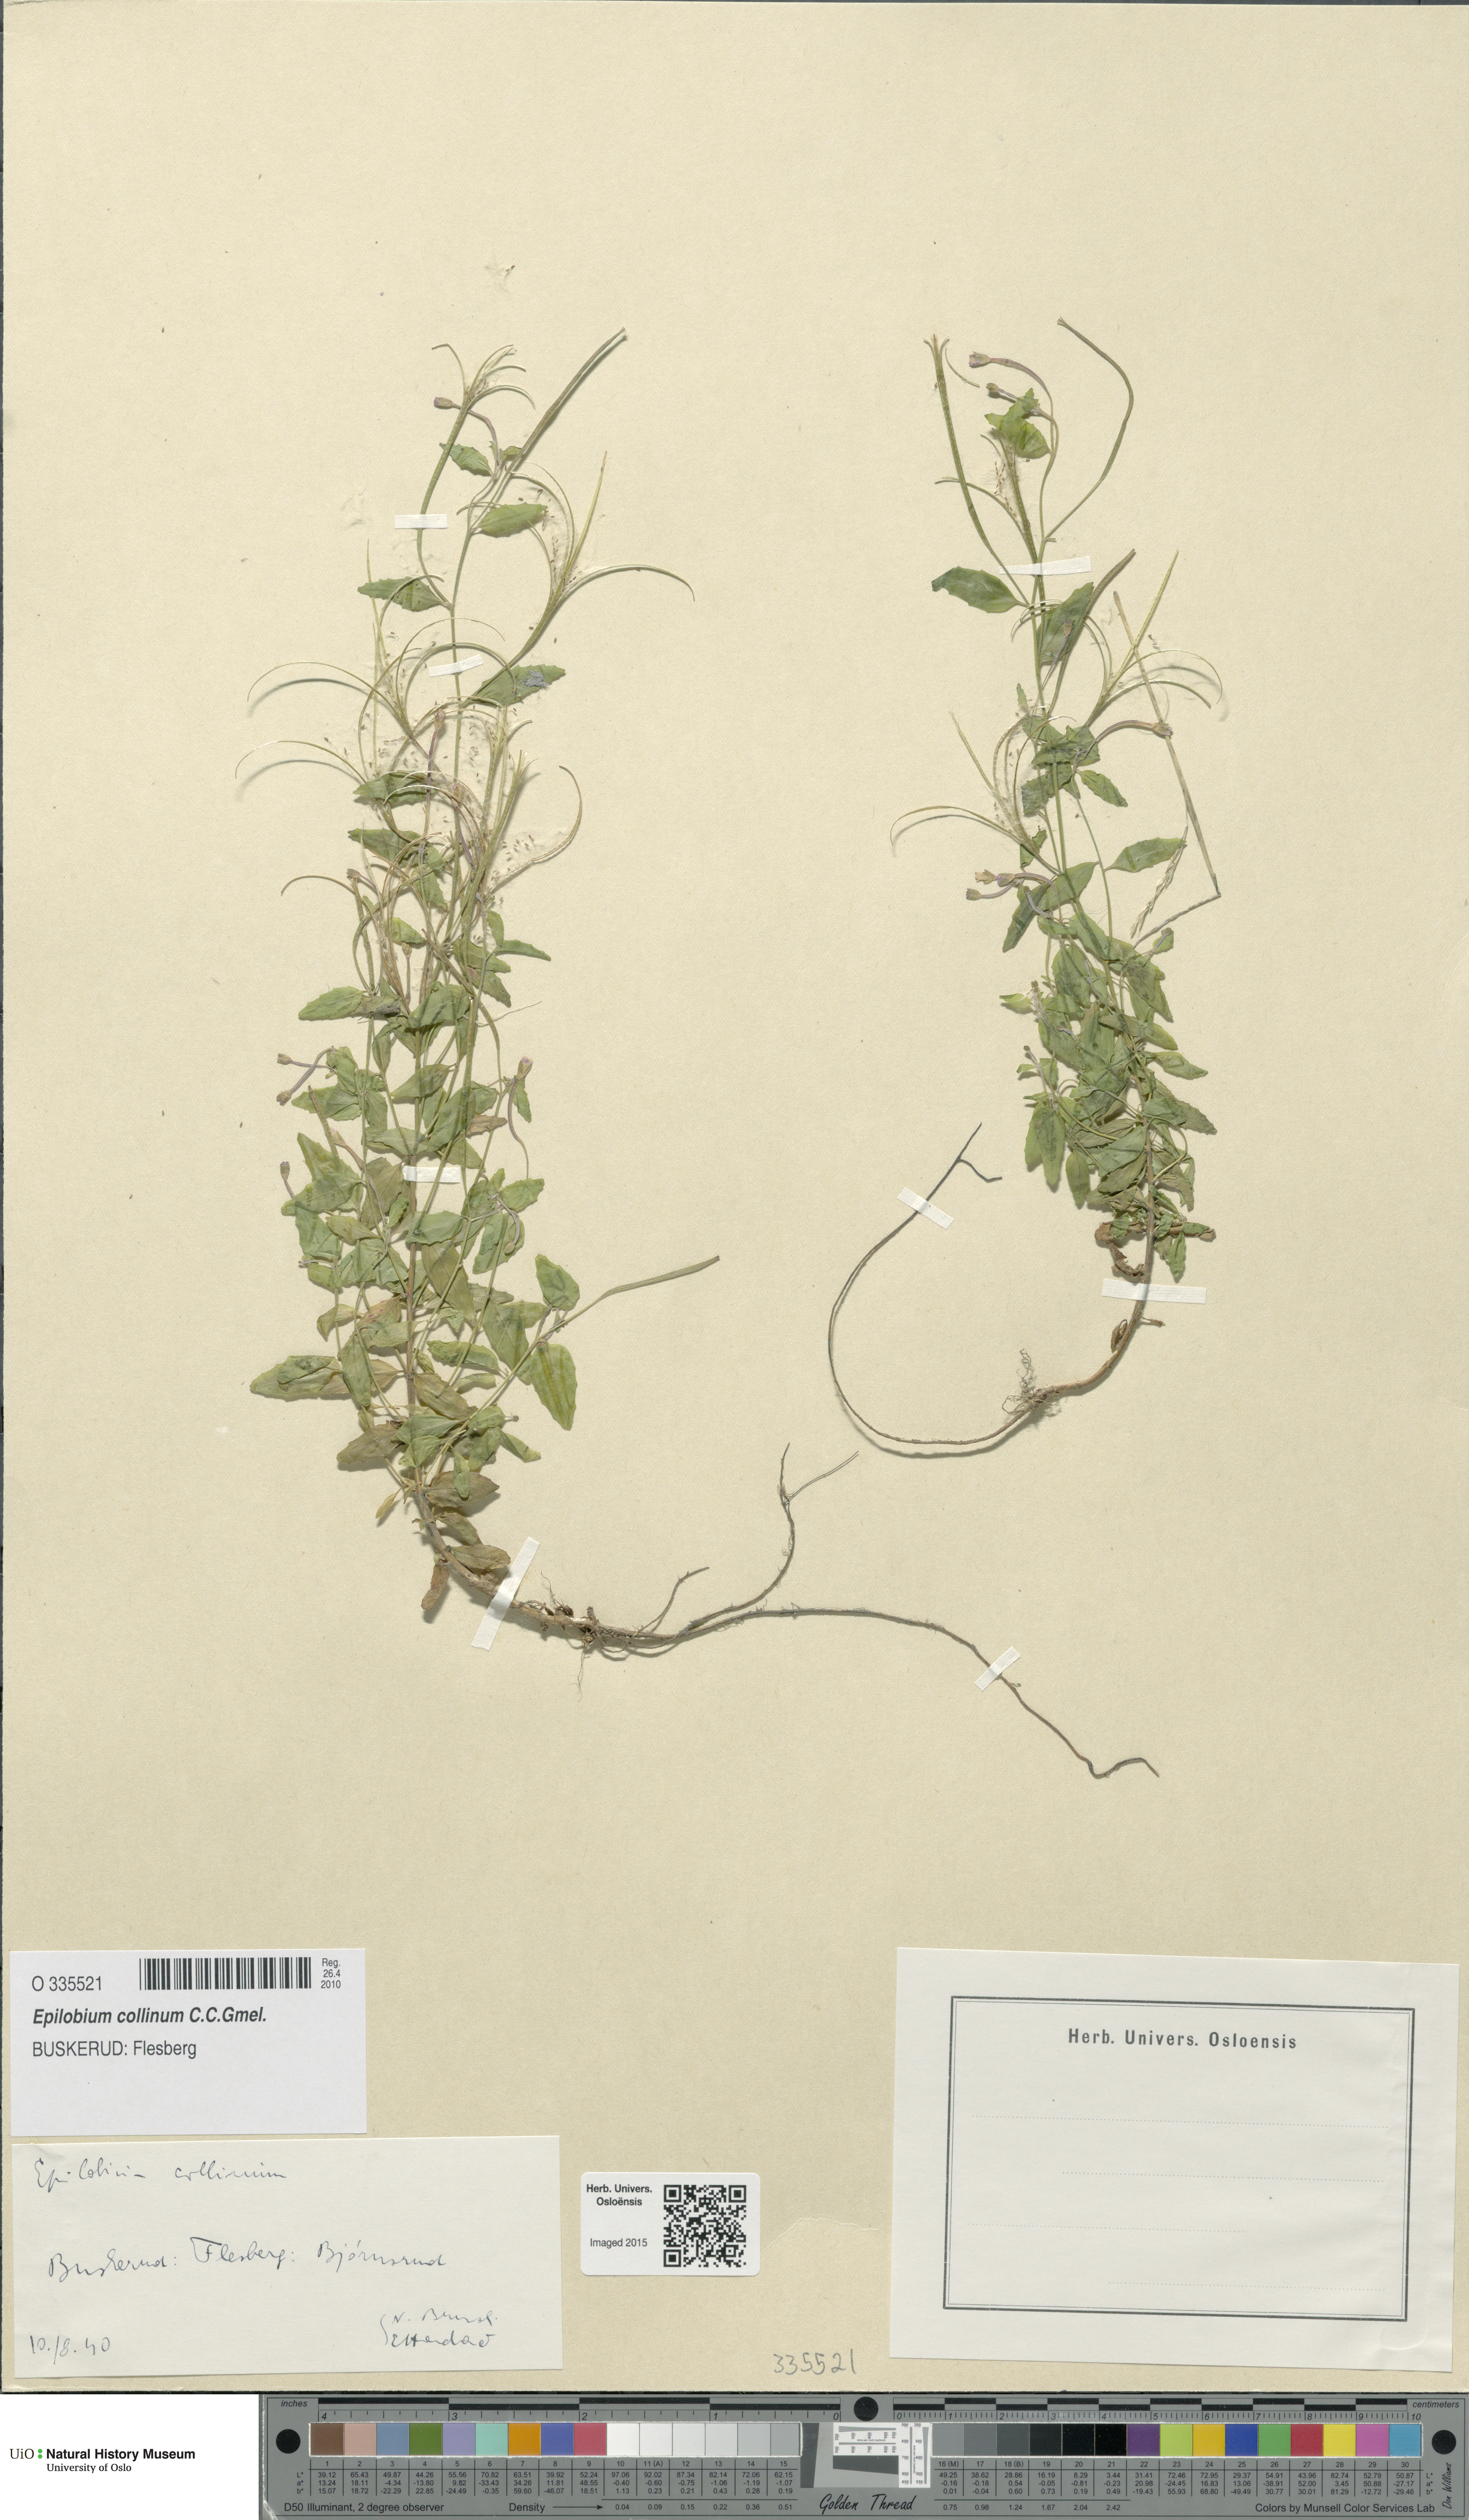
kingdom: Plantae
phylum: Tracheophyta
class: Magnoliopsida
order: Myrtales
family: Onagraceae
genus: Epilobium
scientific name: Epilobium collinum
